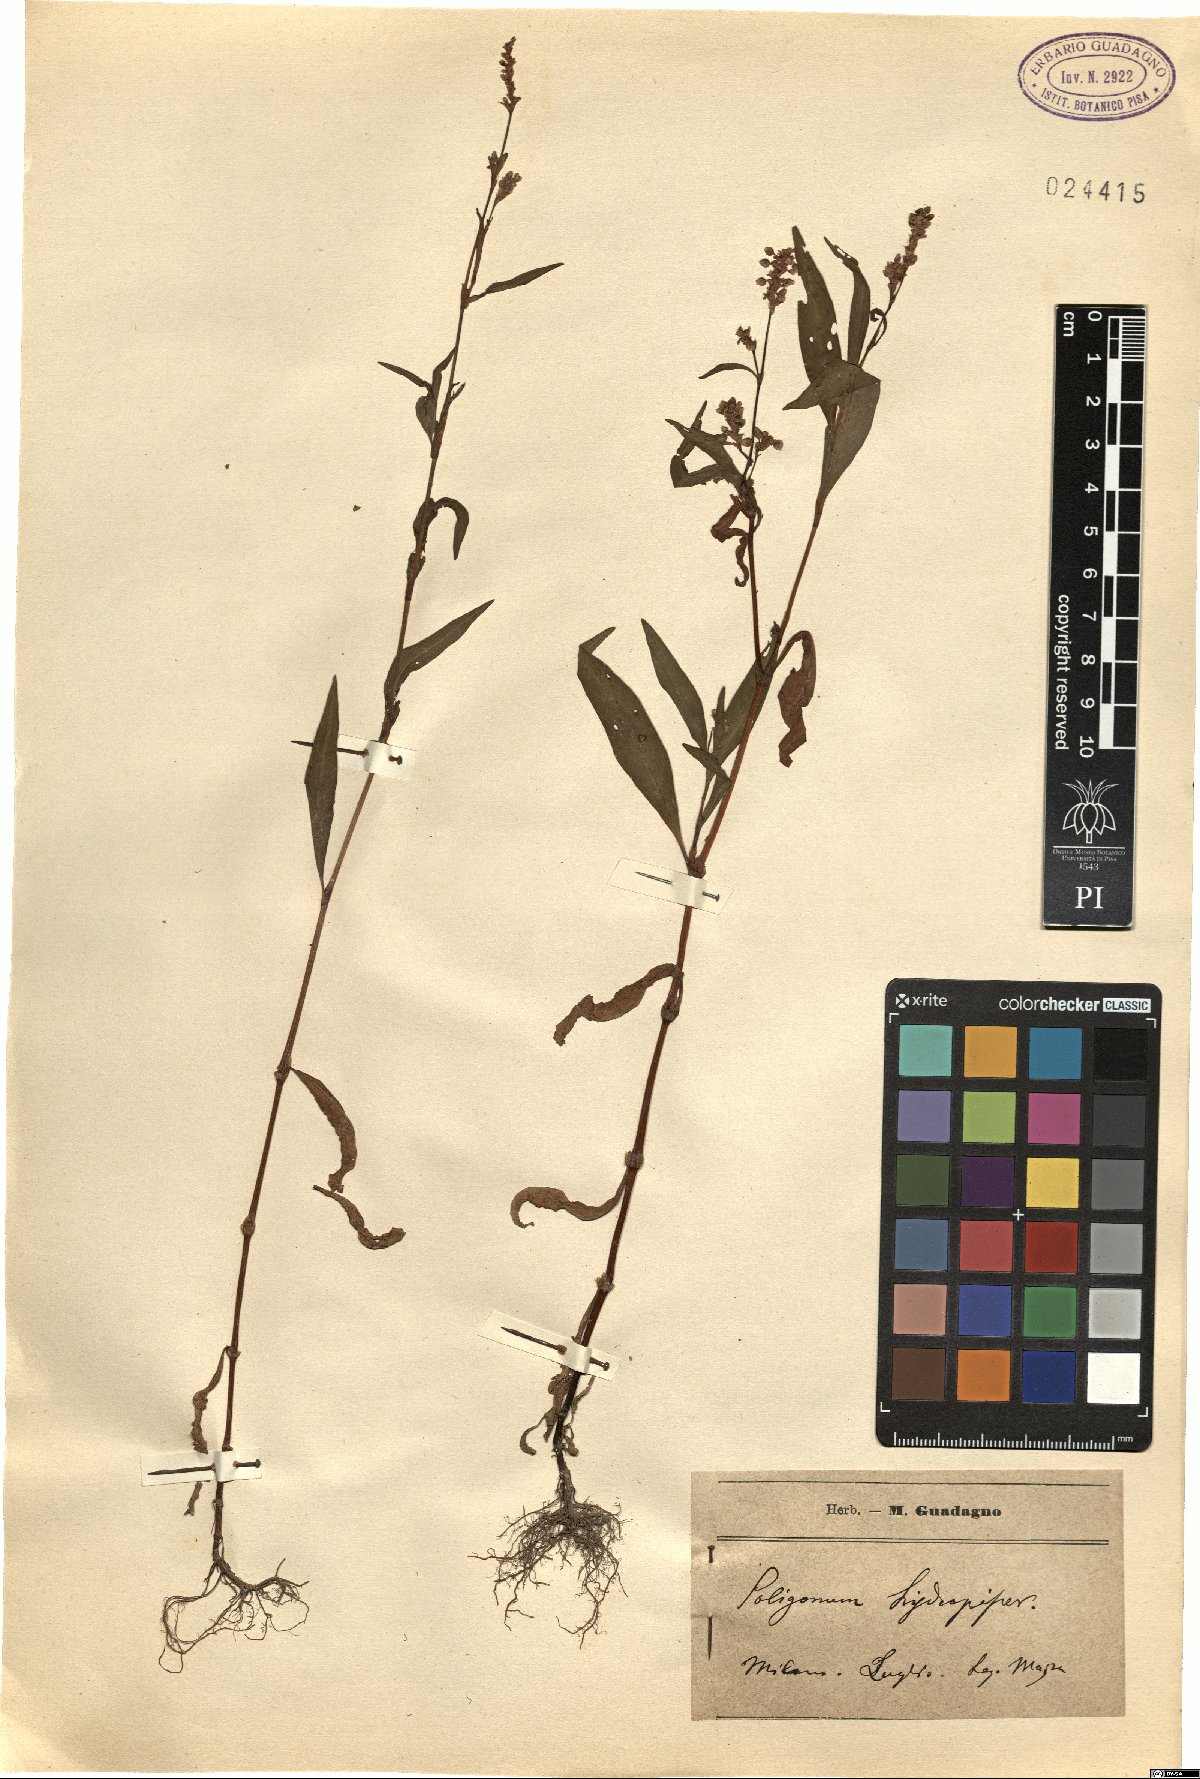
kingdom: Plantae
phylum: Tracheophyta
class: Magnoliopsida
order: Caryophyllales
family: Polygonaceae
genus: Persicaria
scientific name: Persicaria hydropiper
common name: Water-pepper
